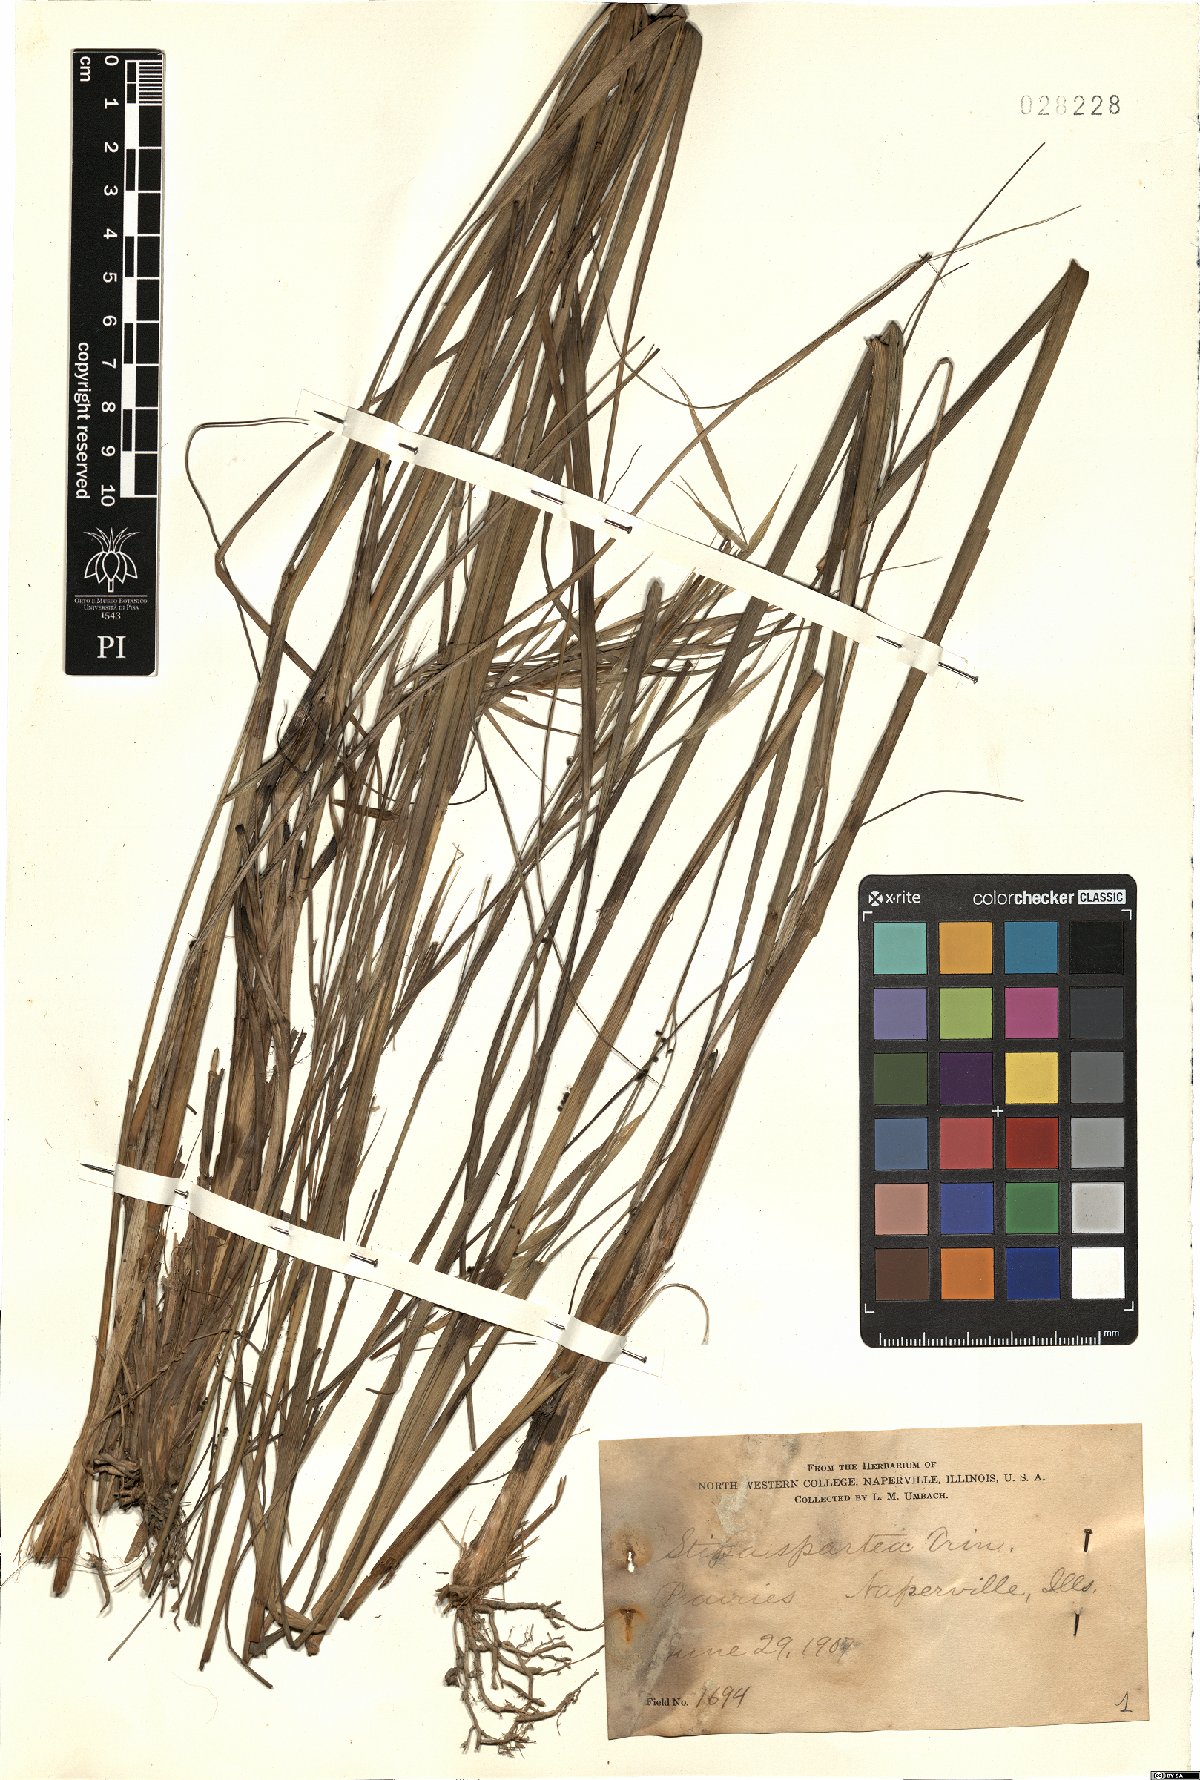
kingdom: Plantae
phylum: Tracheophyta
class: Liliopsida
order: Poales
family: Poaceae
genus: Hesperostipa
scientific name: Hesperostipa spartea
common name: Porcupine grass
